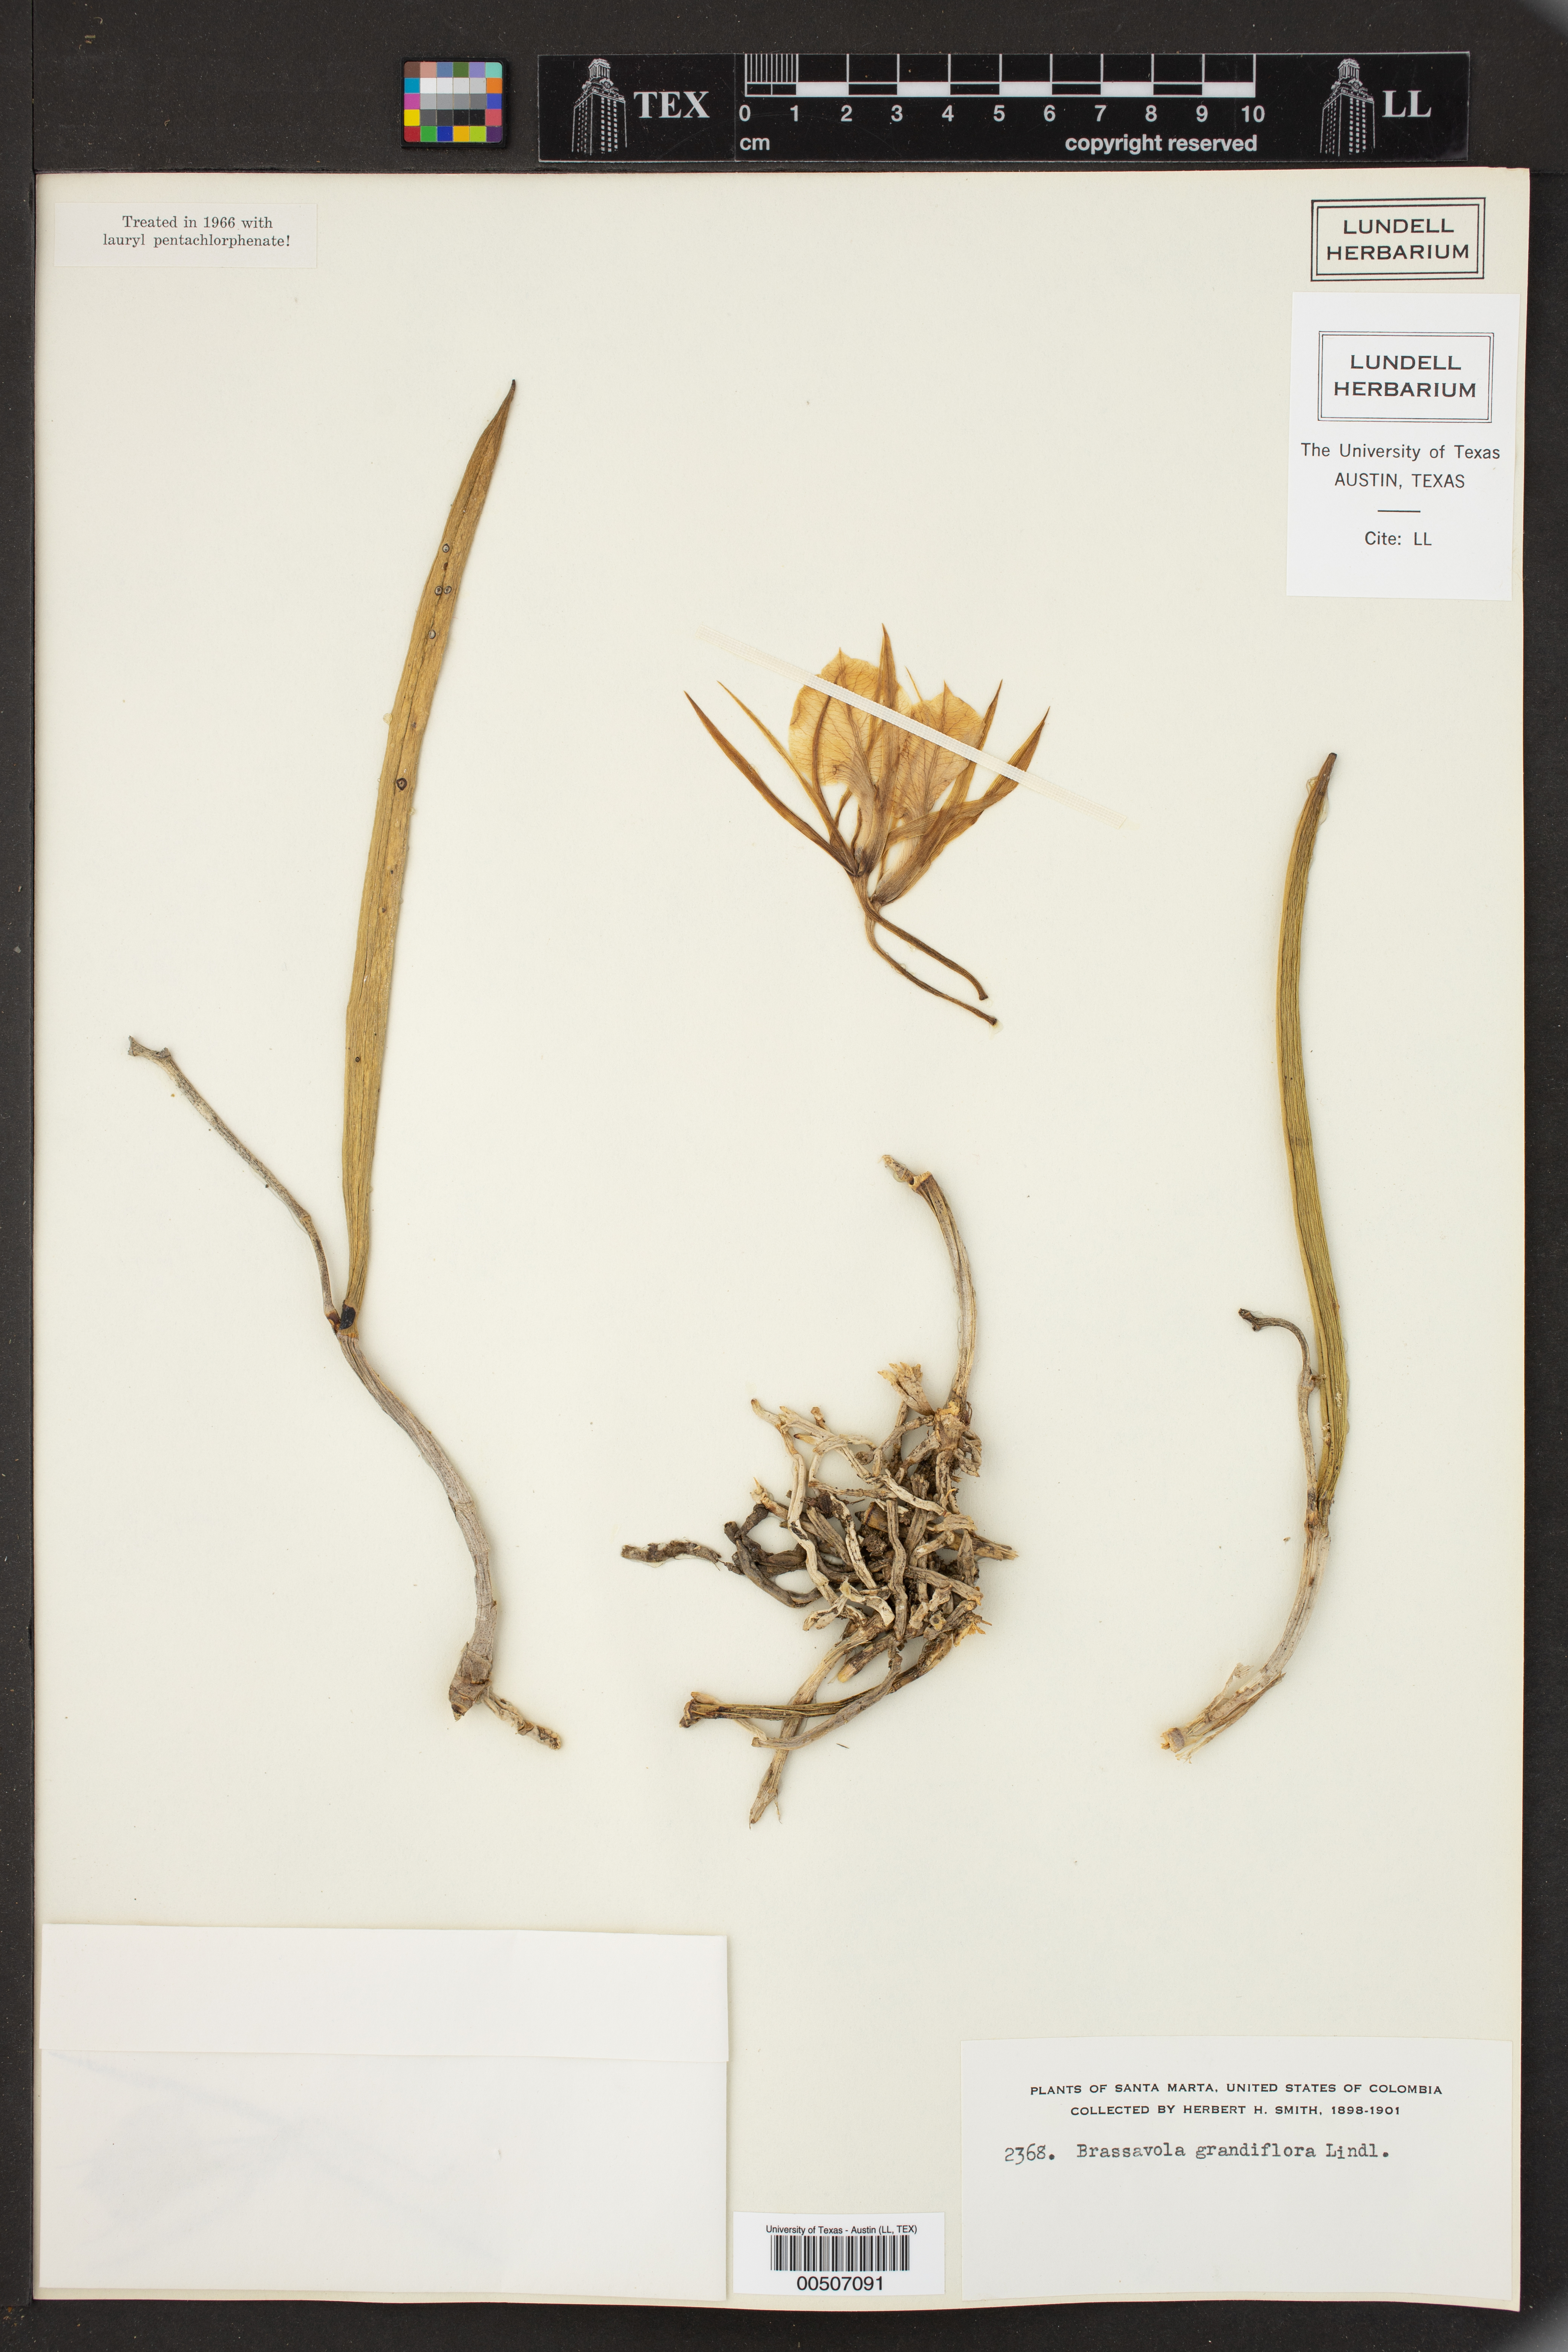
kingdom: Plantae
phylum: Tracheophyta
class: Liliopsida
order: Asparagales
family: Orchidaceae
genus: Brassavola
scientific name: Brassavola nodosa
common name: Lady of the night
